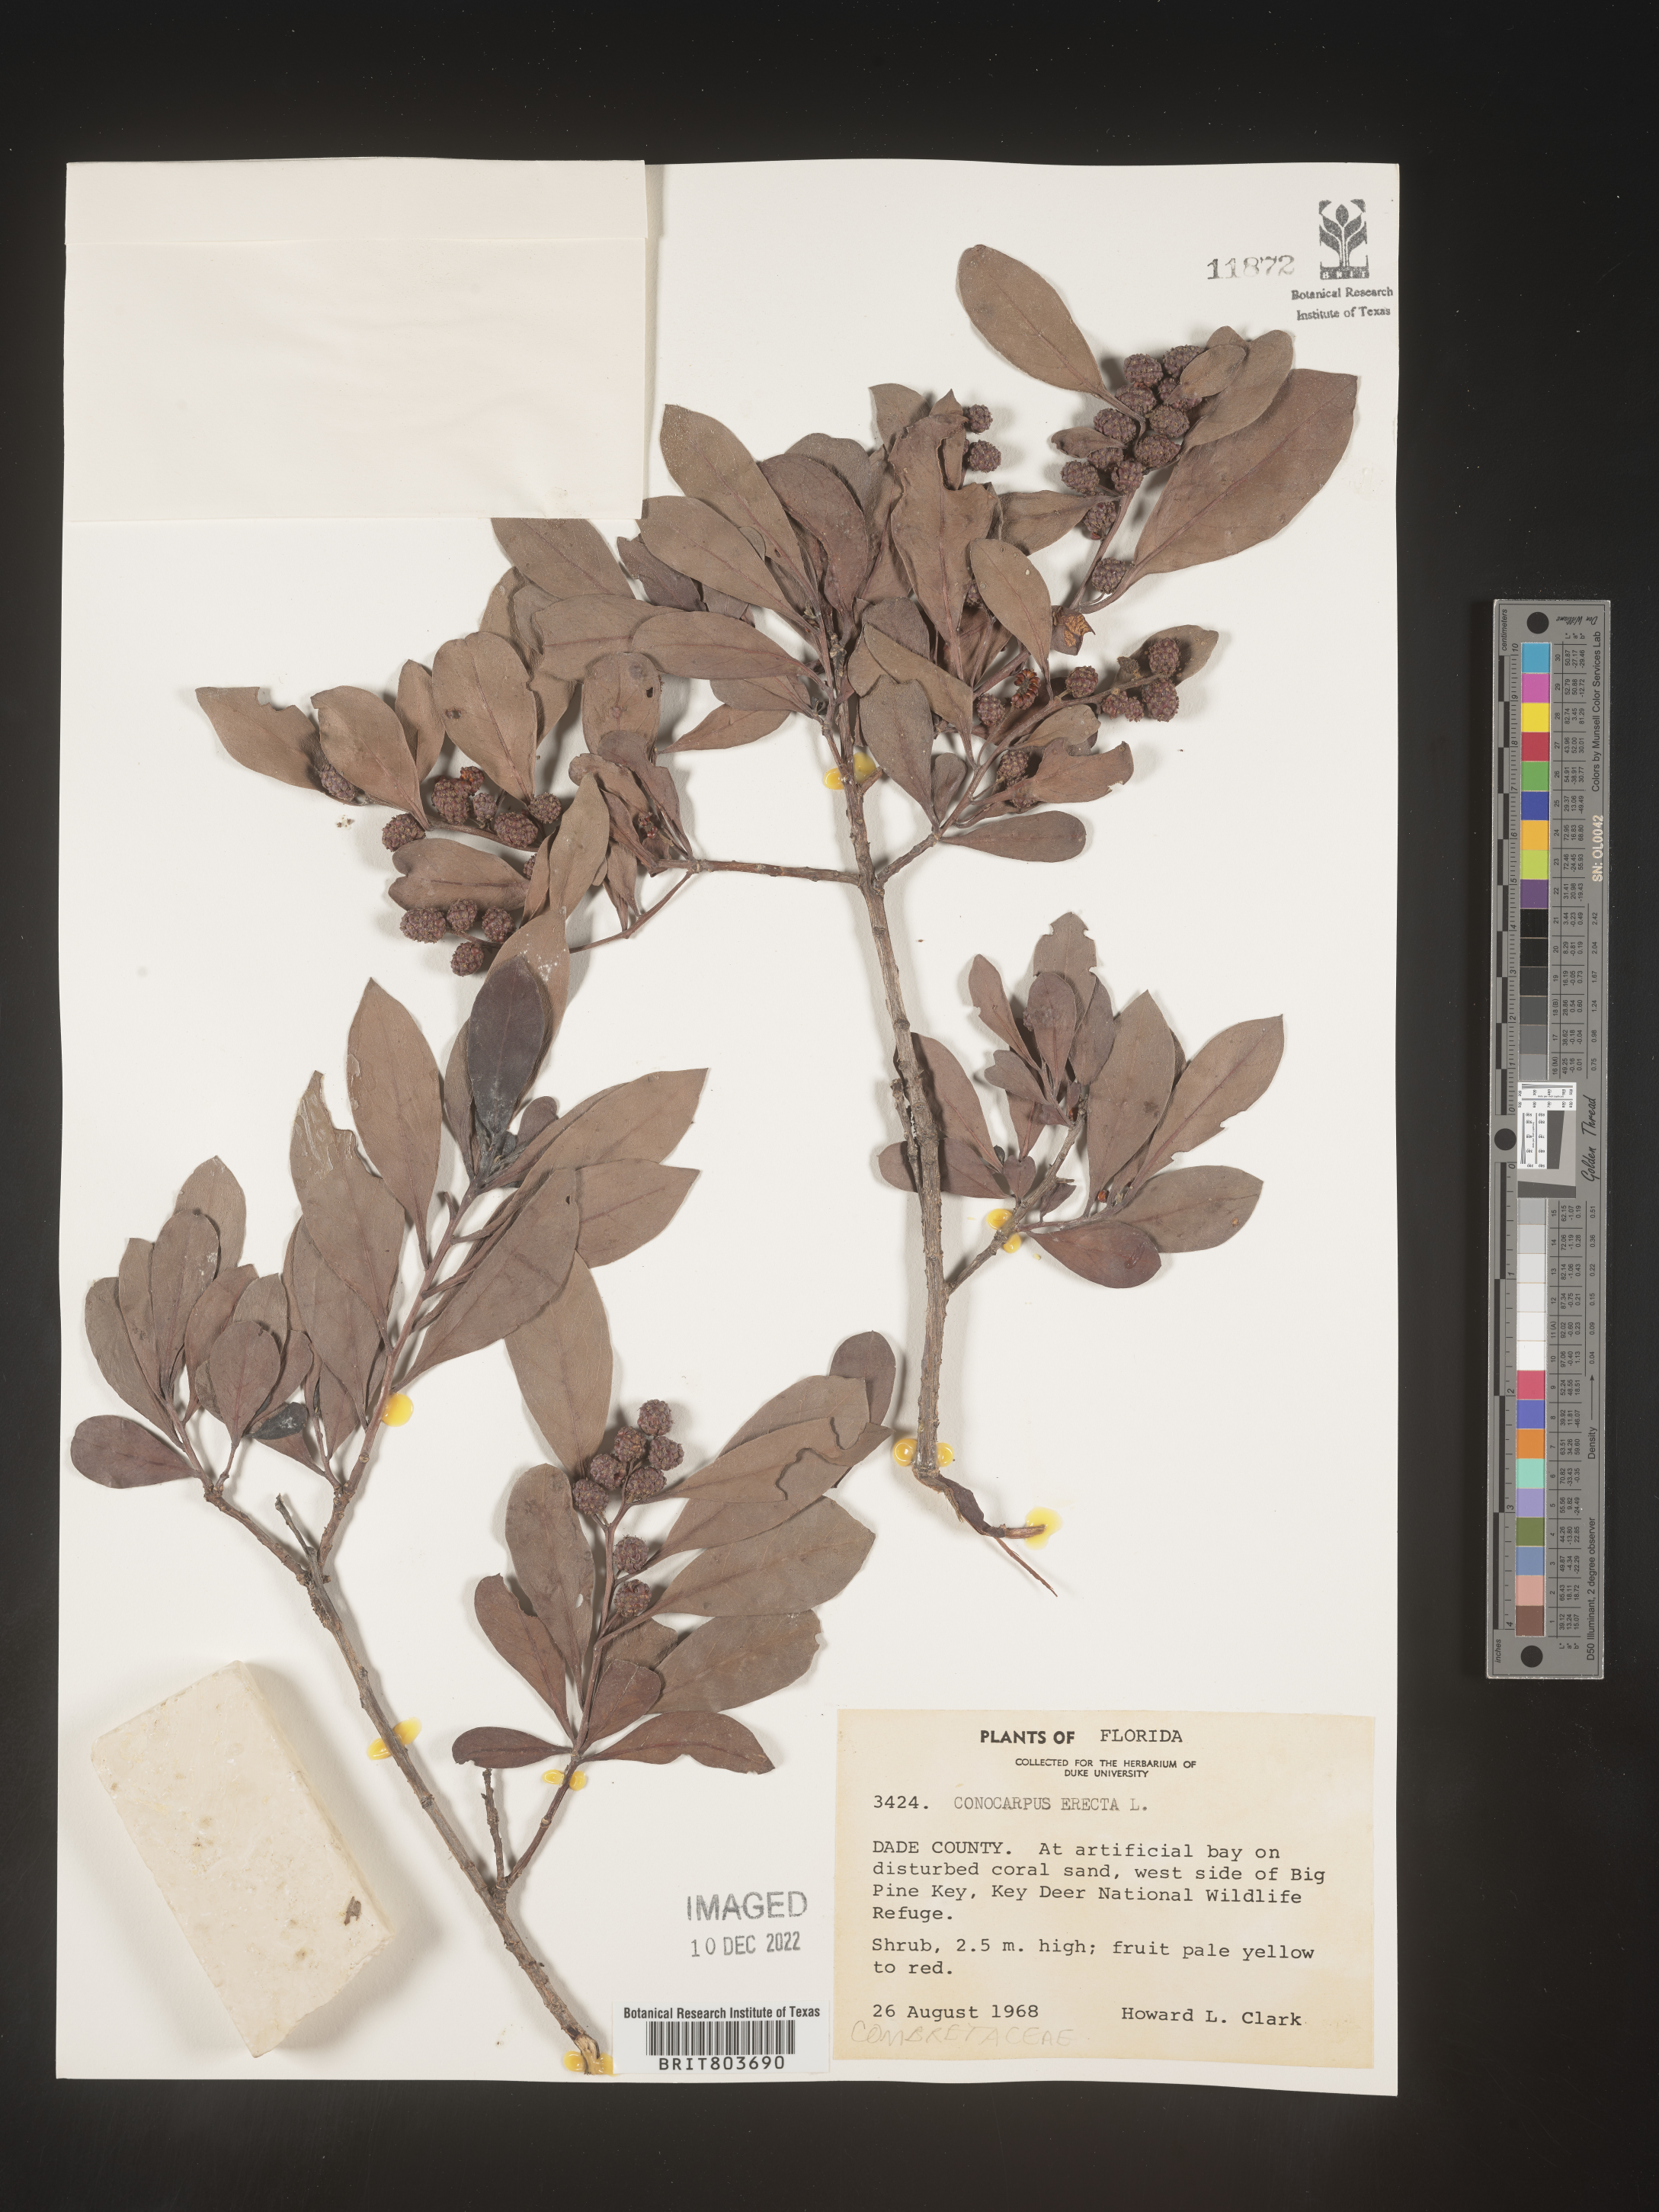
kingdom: Plantae
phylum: Tracheophyta
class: Magnoliopsida
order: Myrtales
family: Combretaceae
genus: Conocarpus
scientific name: Conocarpus erectus
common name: Button mangrove
